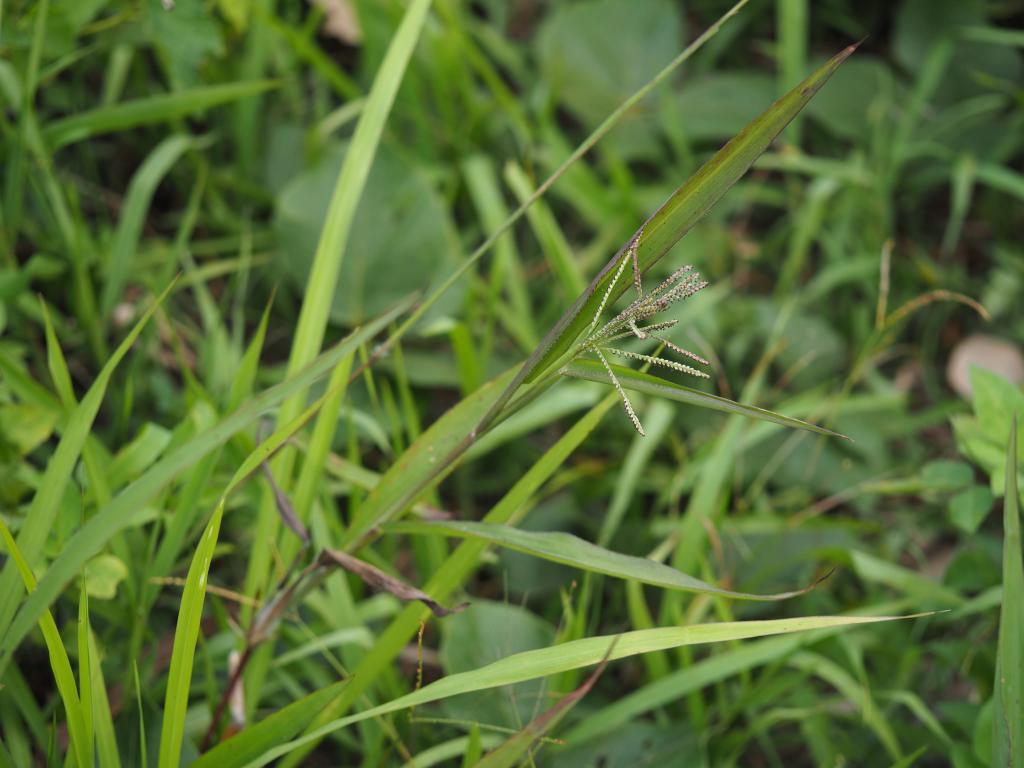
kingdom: Plantae
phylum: Tracheophyta
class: Liliopsida
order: Poales
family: Poaceae
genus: Paspalum
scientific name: Paspalum paniculatum
